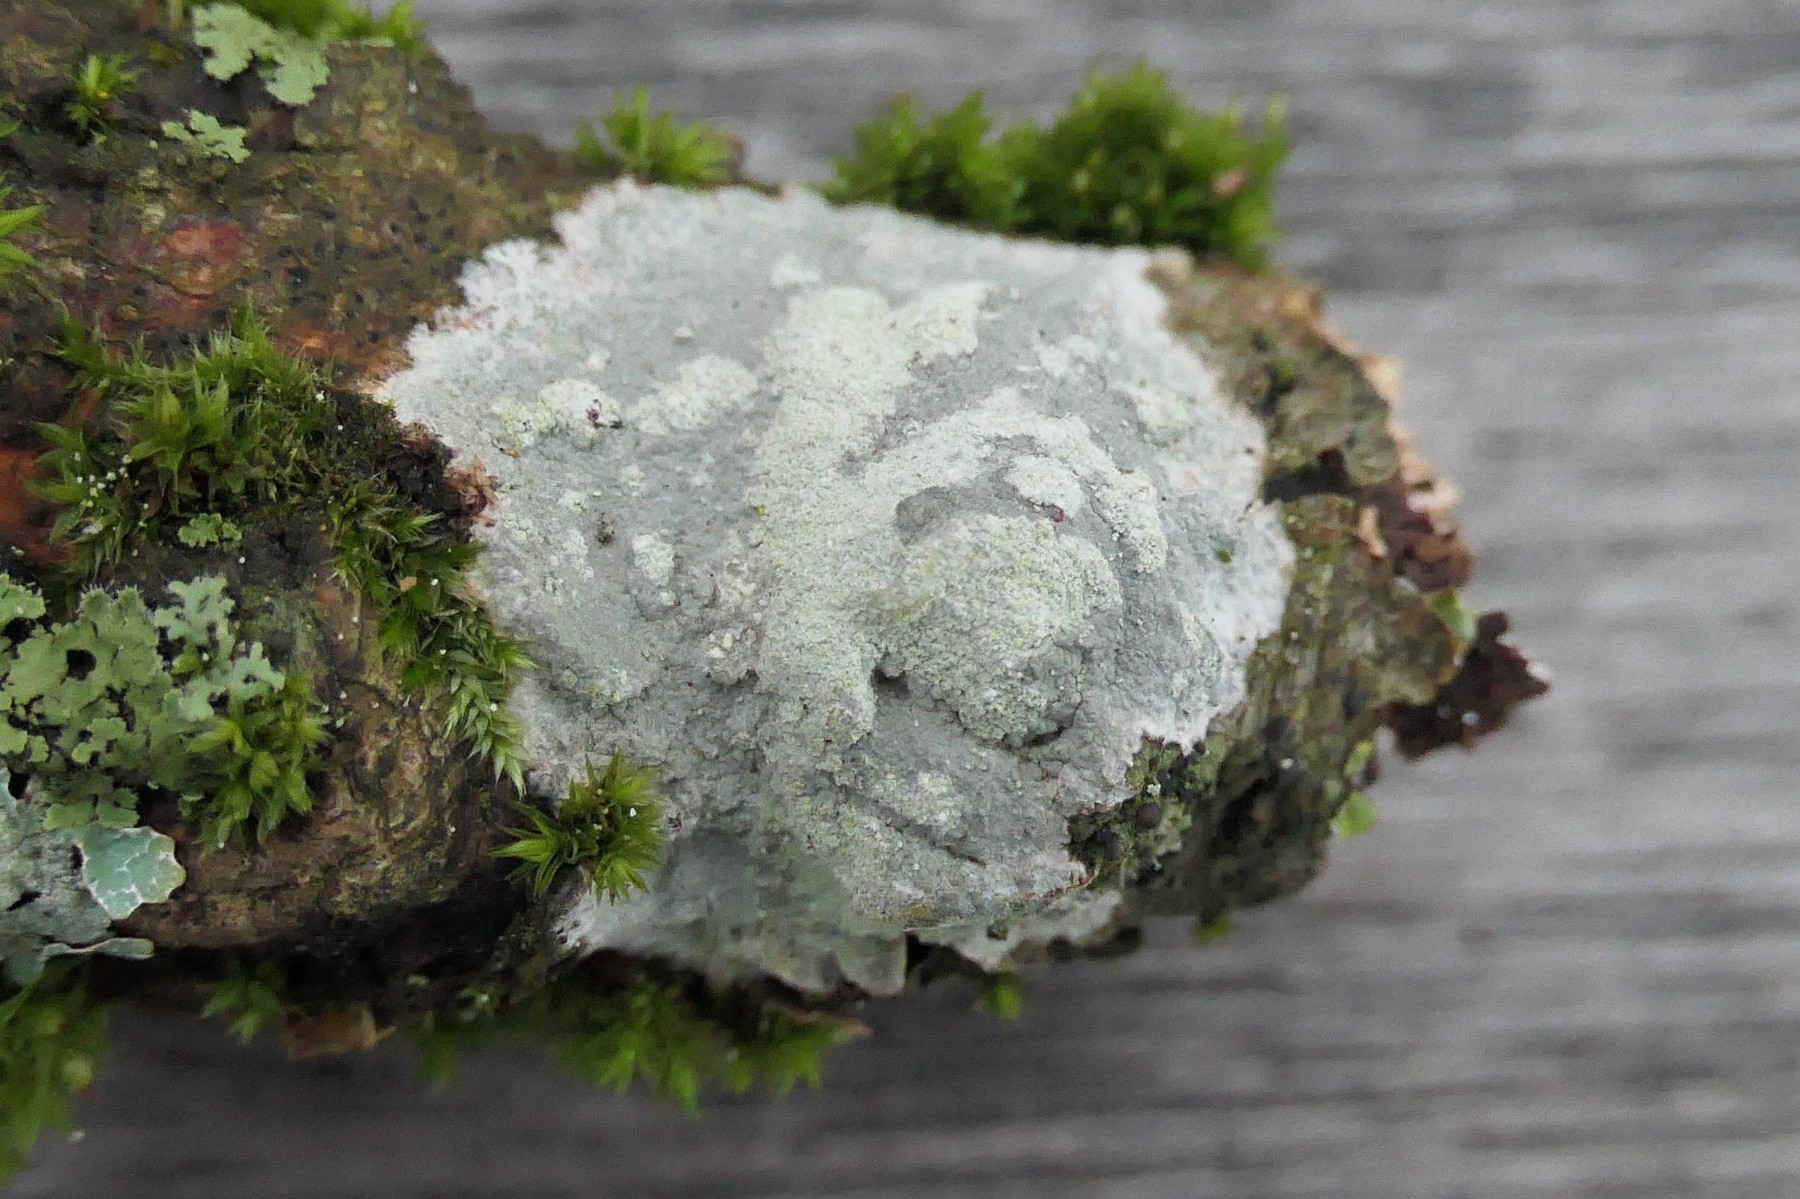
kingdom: Fungi
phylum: Ascomycota
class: Lecanoromycetes
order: Ostropales
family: Phlyctidaceae
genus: Phlyctis
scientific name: Phlyctis argena
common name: almindelig sølvlav
